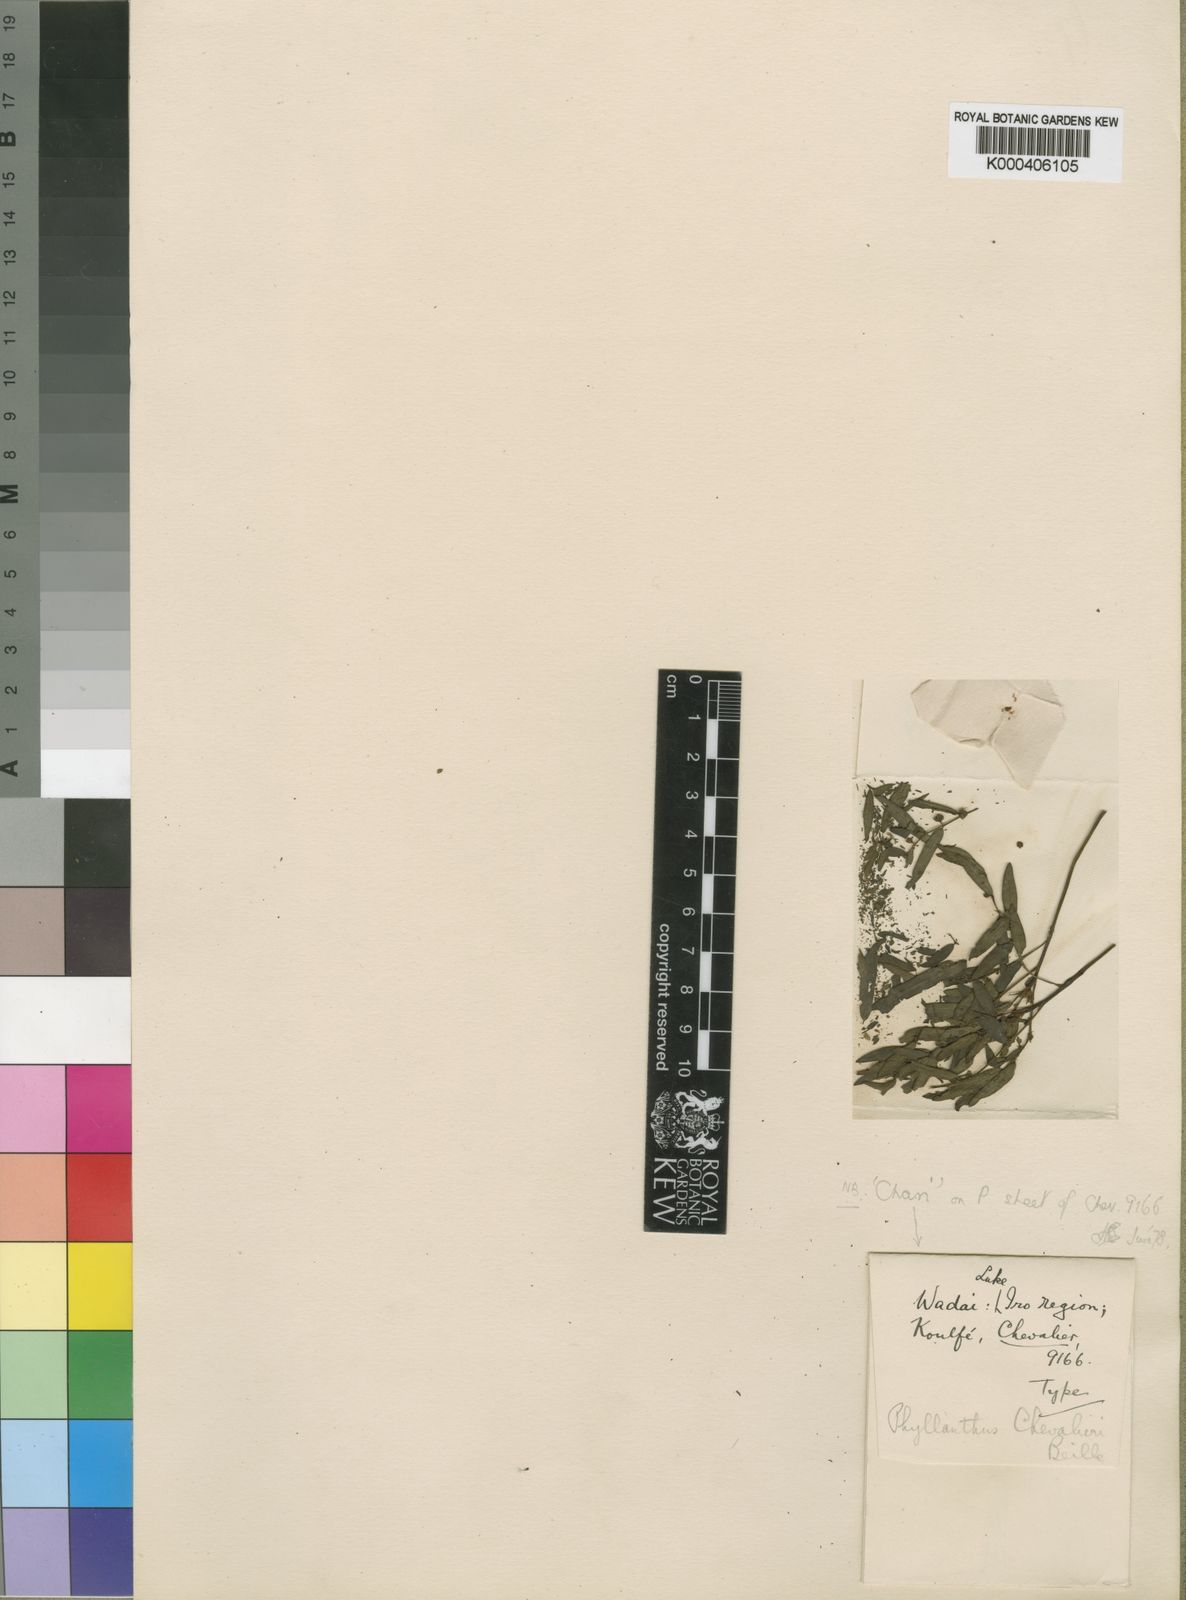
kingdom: Plantae
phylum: Tracheophyta
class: Magnoliopsida
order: Malpighiales
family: Phyllanthaceae
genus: Phyllanthus
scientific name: Phyllanthus chevalieri
